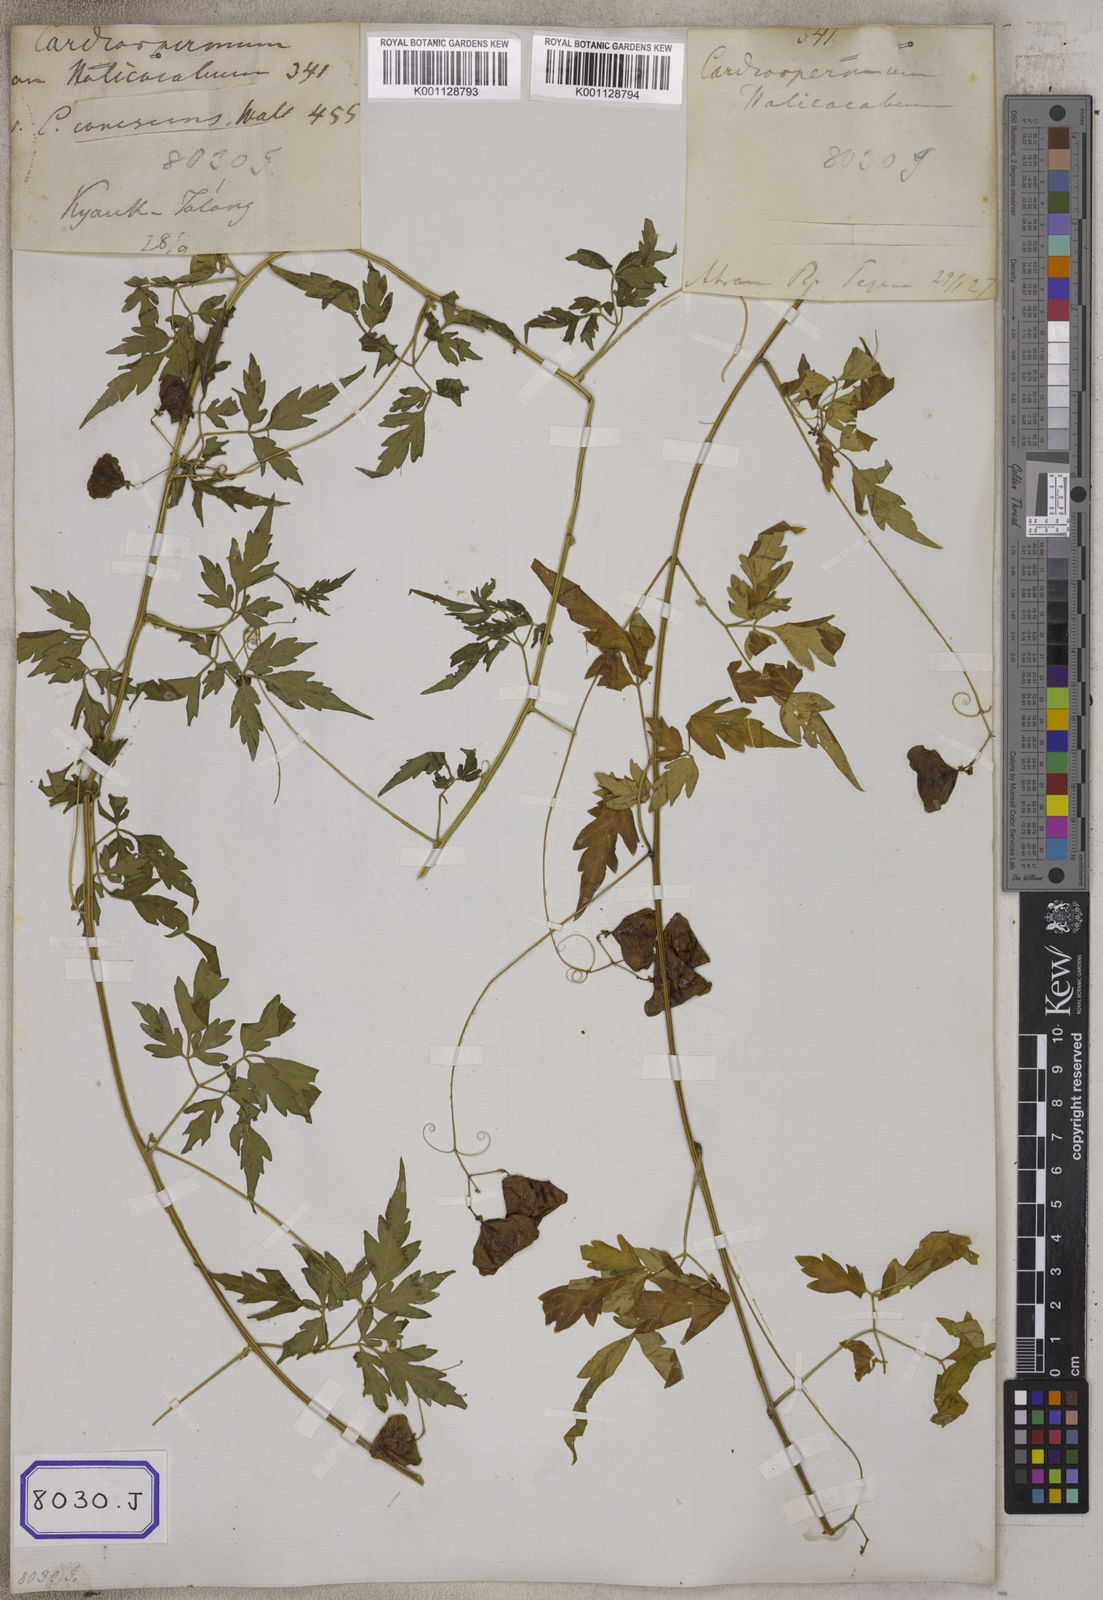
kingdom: Plantae
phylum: Tracheophyta
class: Magnoliopsida
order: Sapindales
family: Sapindaceae
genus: Cardiospermum
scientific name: Cardiospermum halicacabum
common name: Balloon vine
